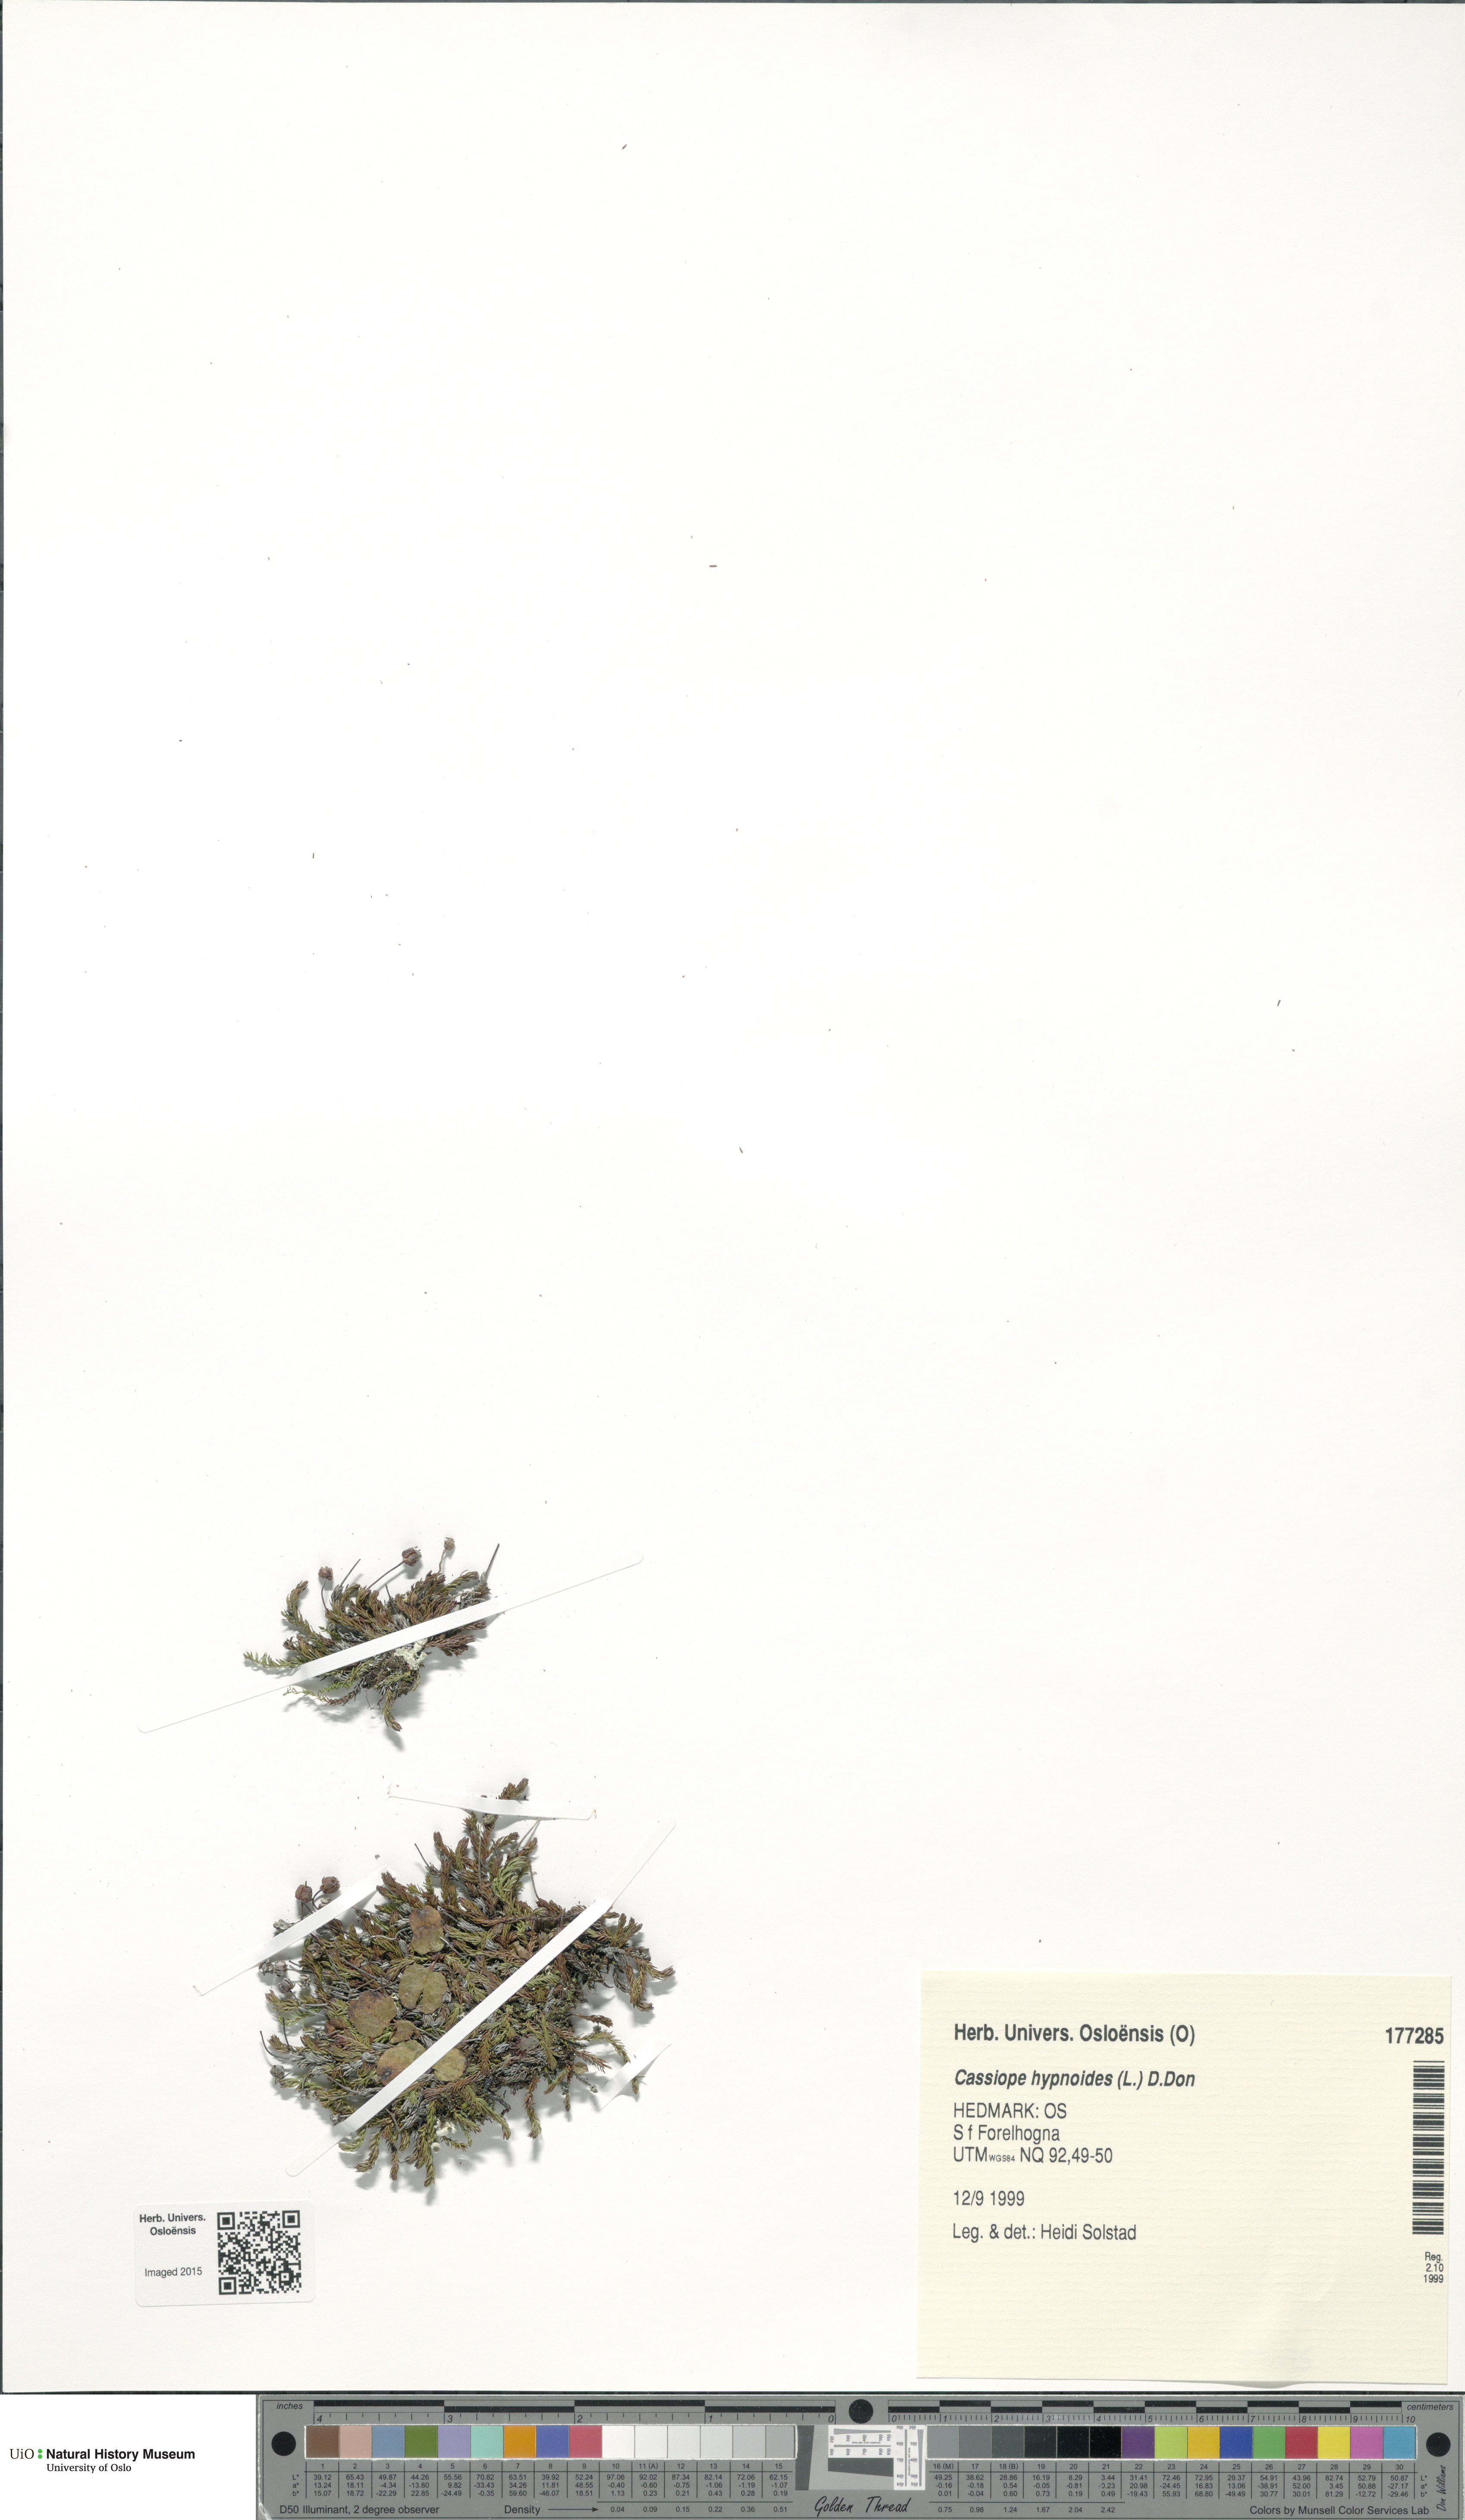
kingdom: Plantae
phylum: Tracheophyta
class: Magnoliopsida
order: Ericales
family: Ericaceae
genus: Harrimanella
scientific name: Harrimanella hypnoides
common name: Moss bell heather
